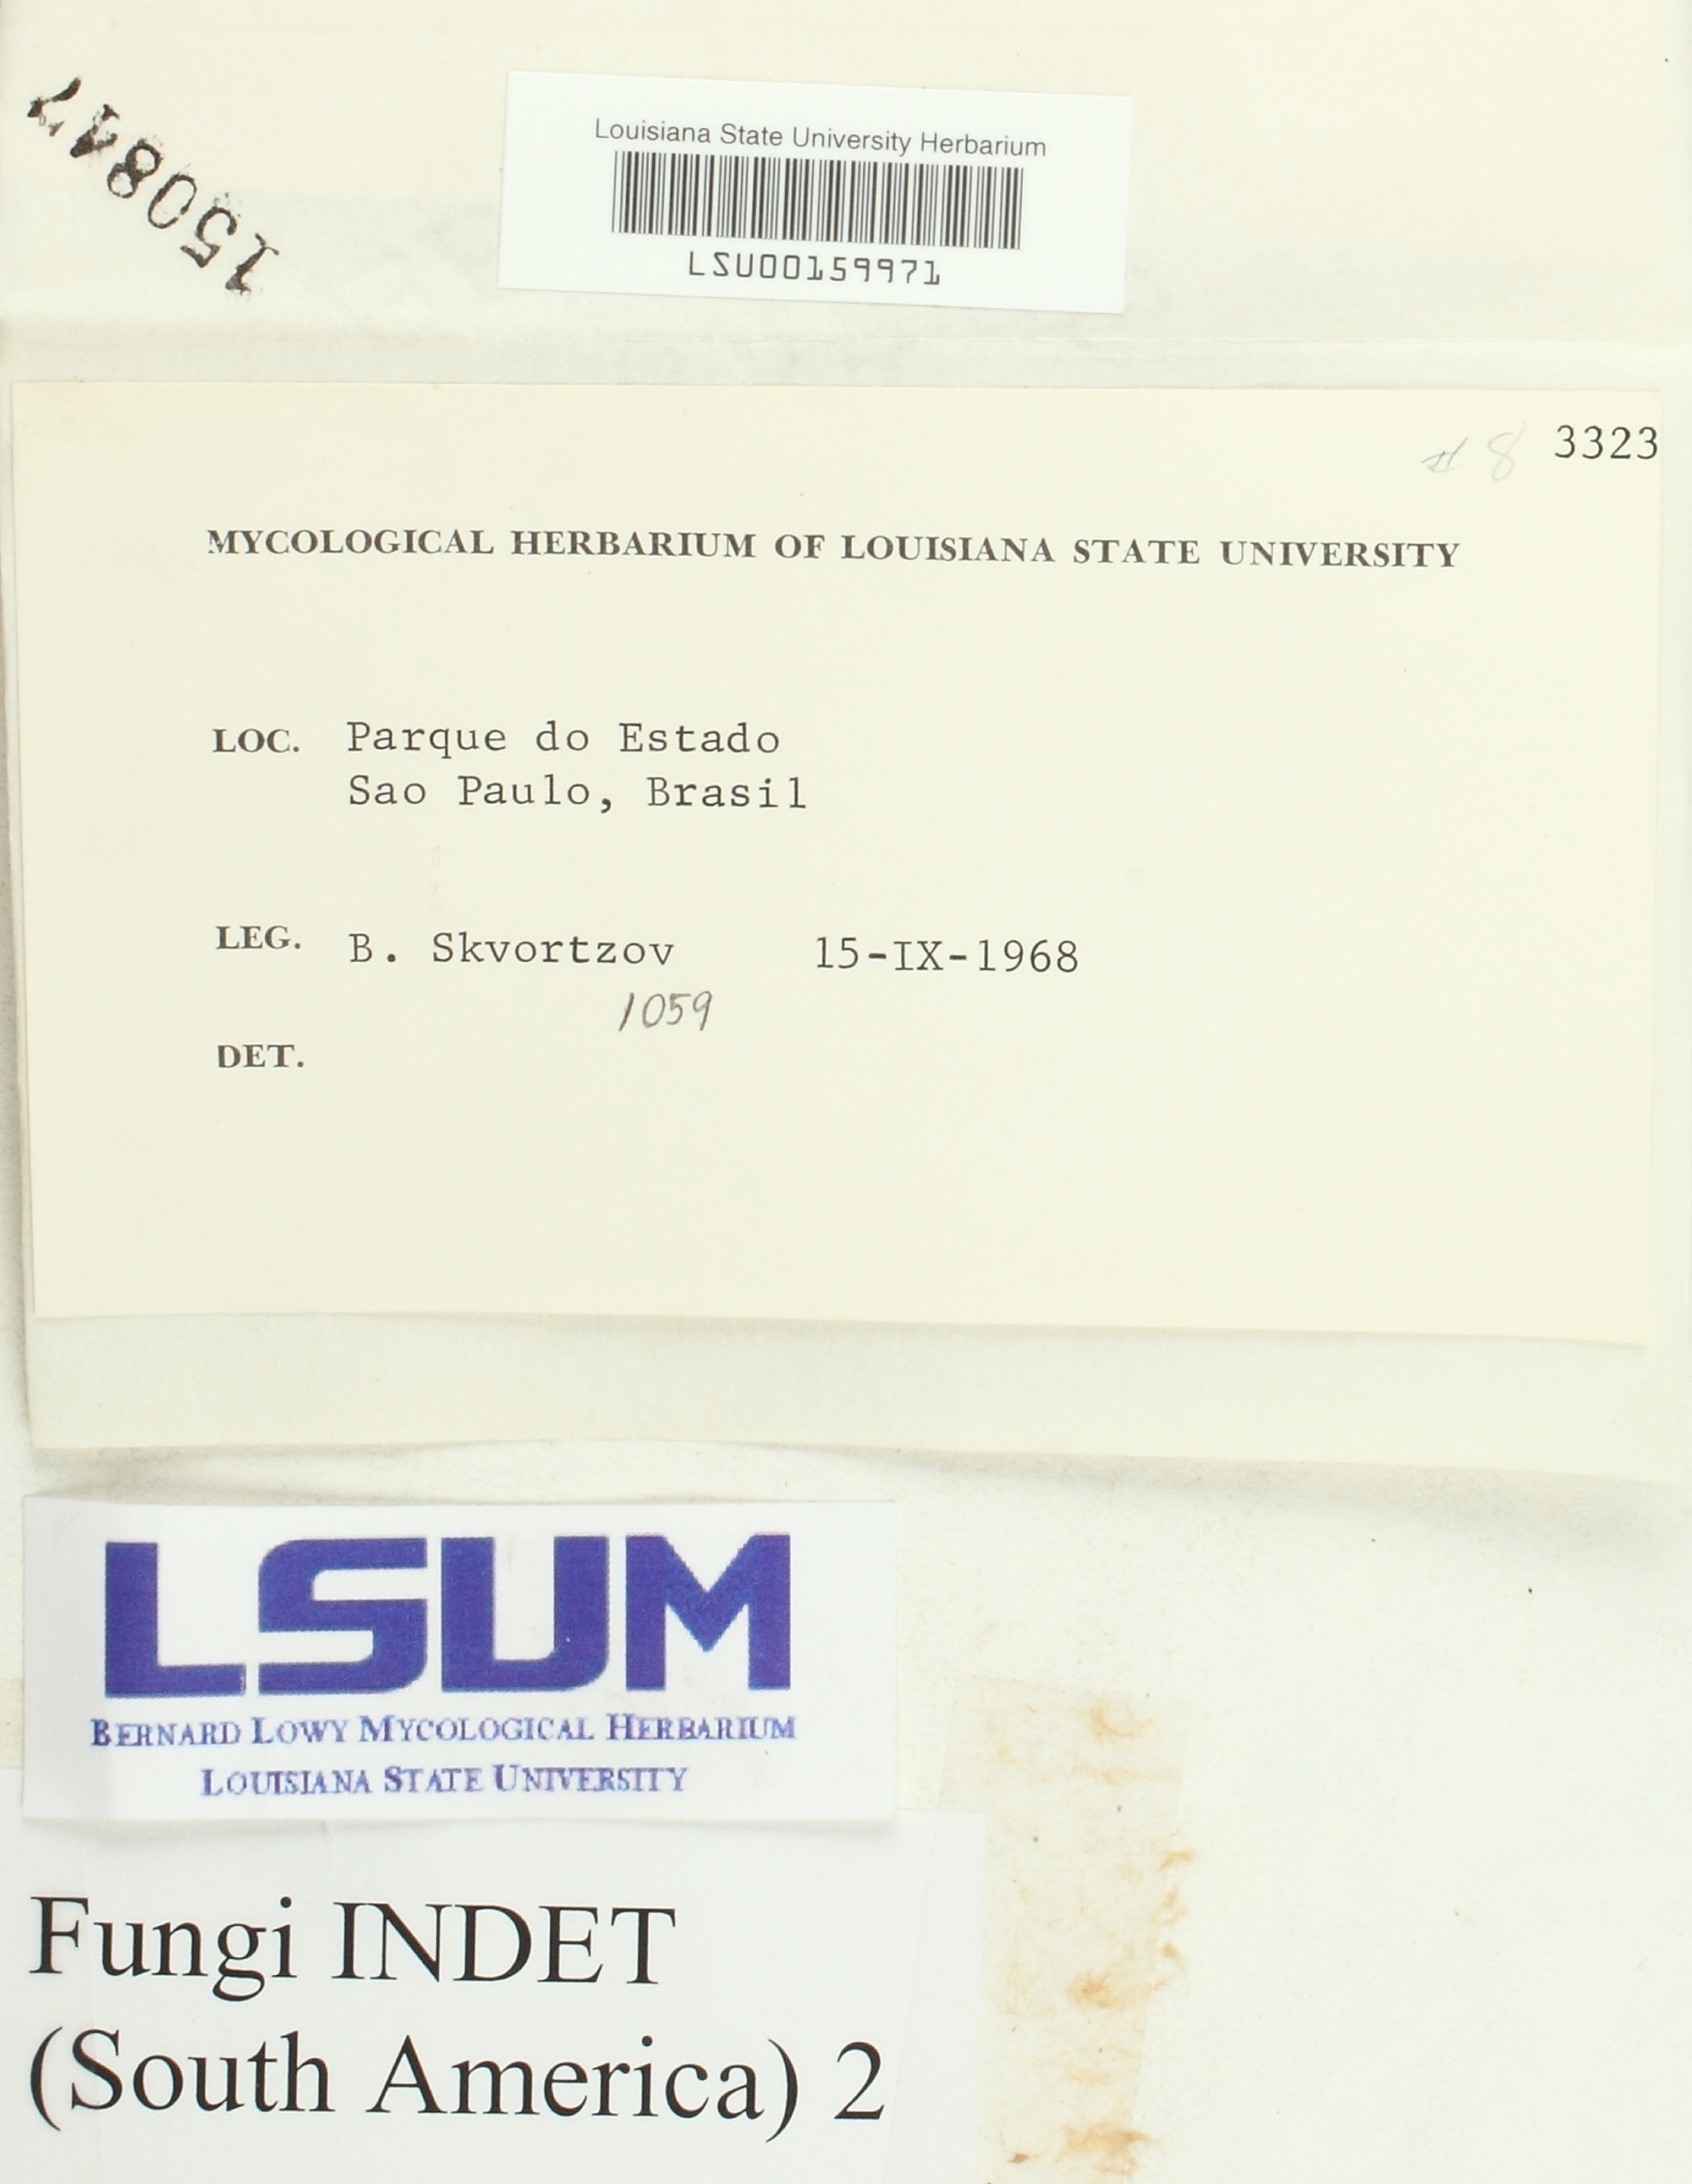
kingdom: Fungi
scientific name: Fungi
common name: Fungi
